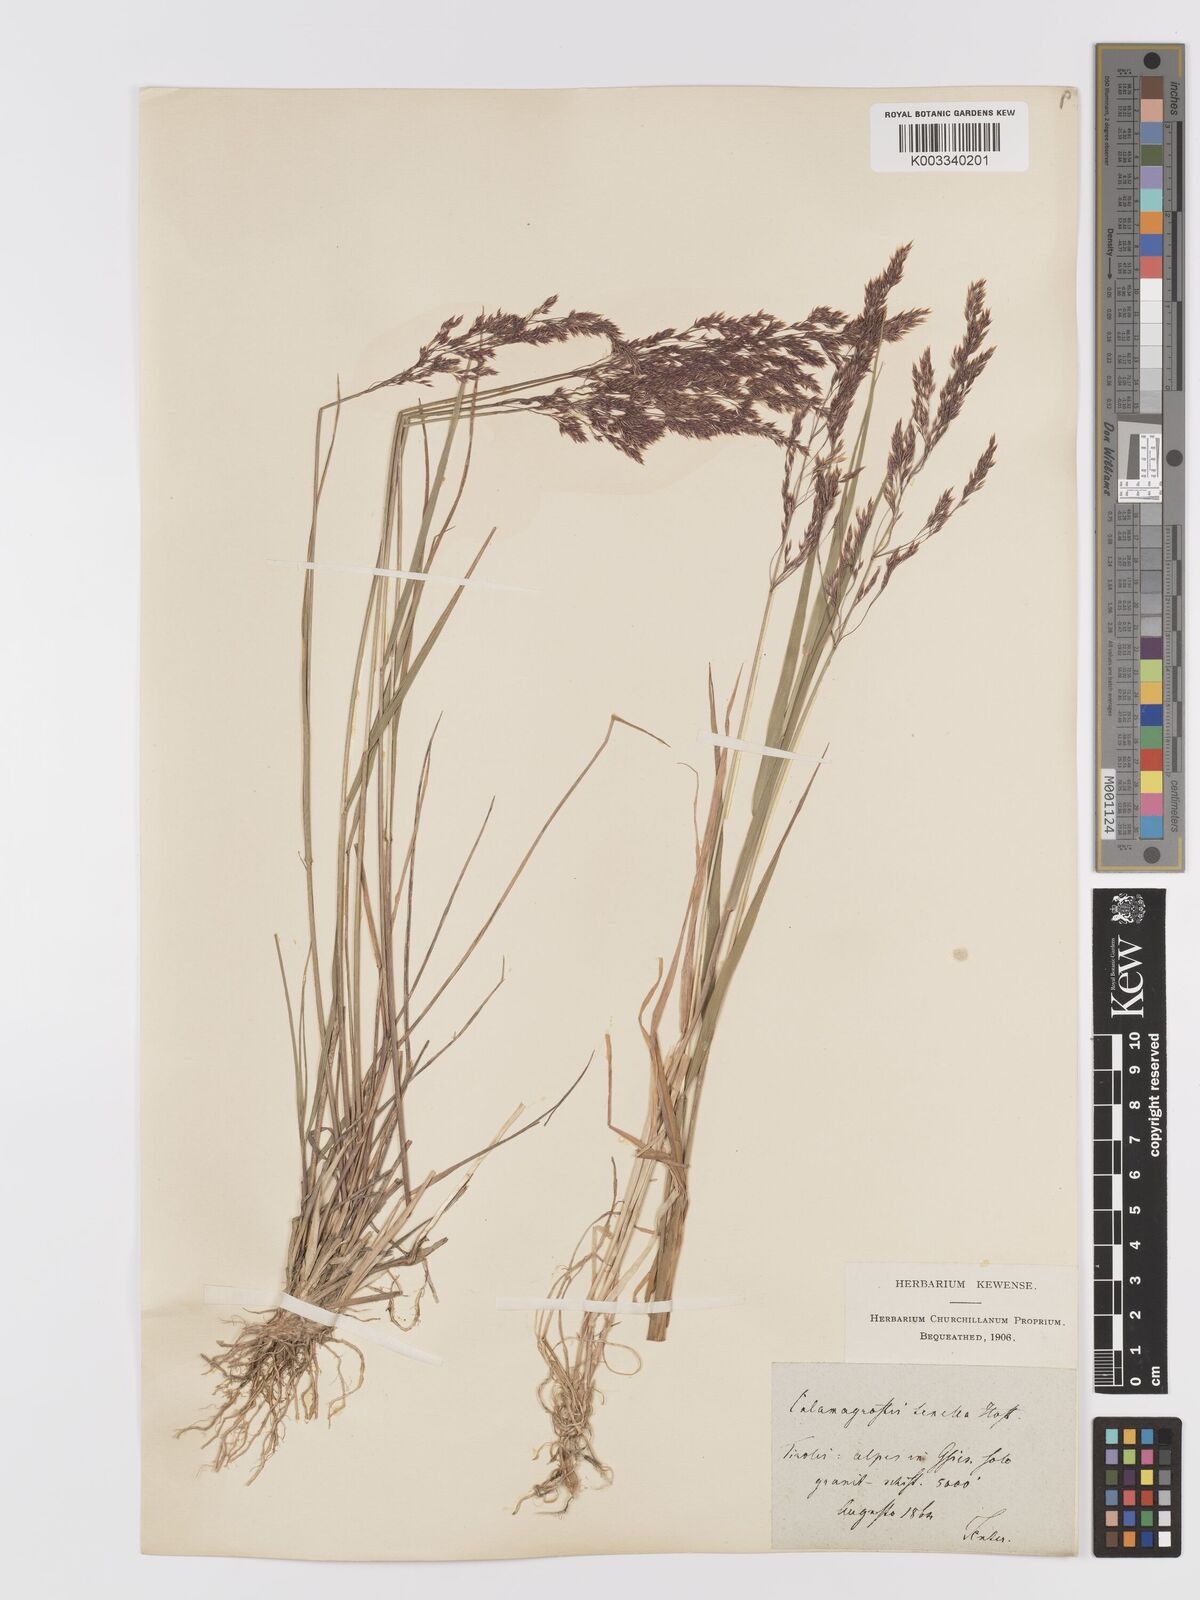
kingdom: Plantae
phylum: Tracheophyta
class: Liliopsida
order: Poales
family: Poaceae
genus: Agrostis
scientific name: Agrostis schraderiana
